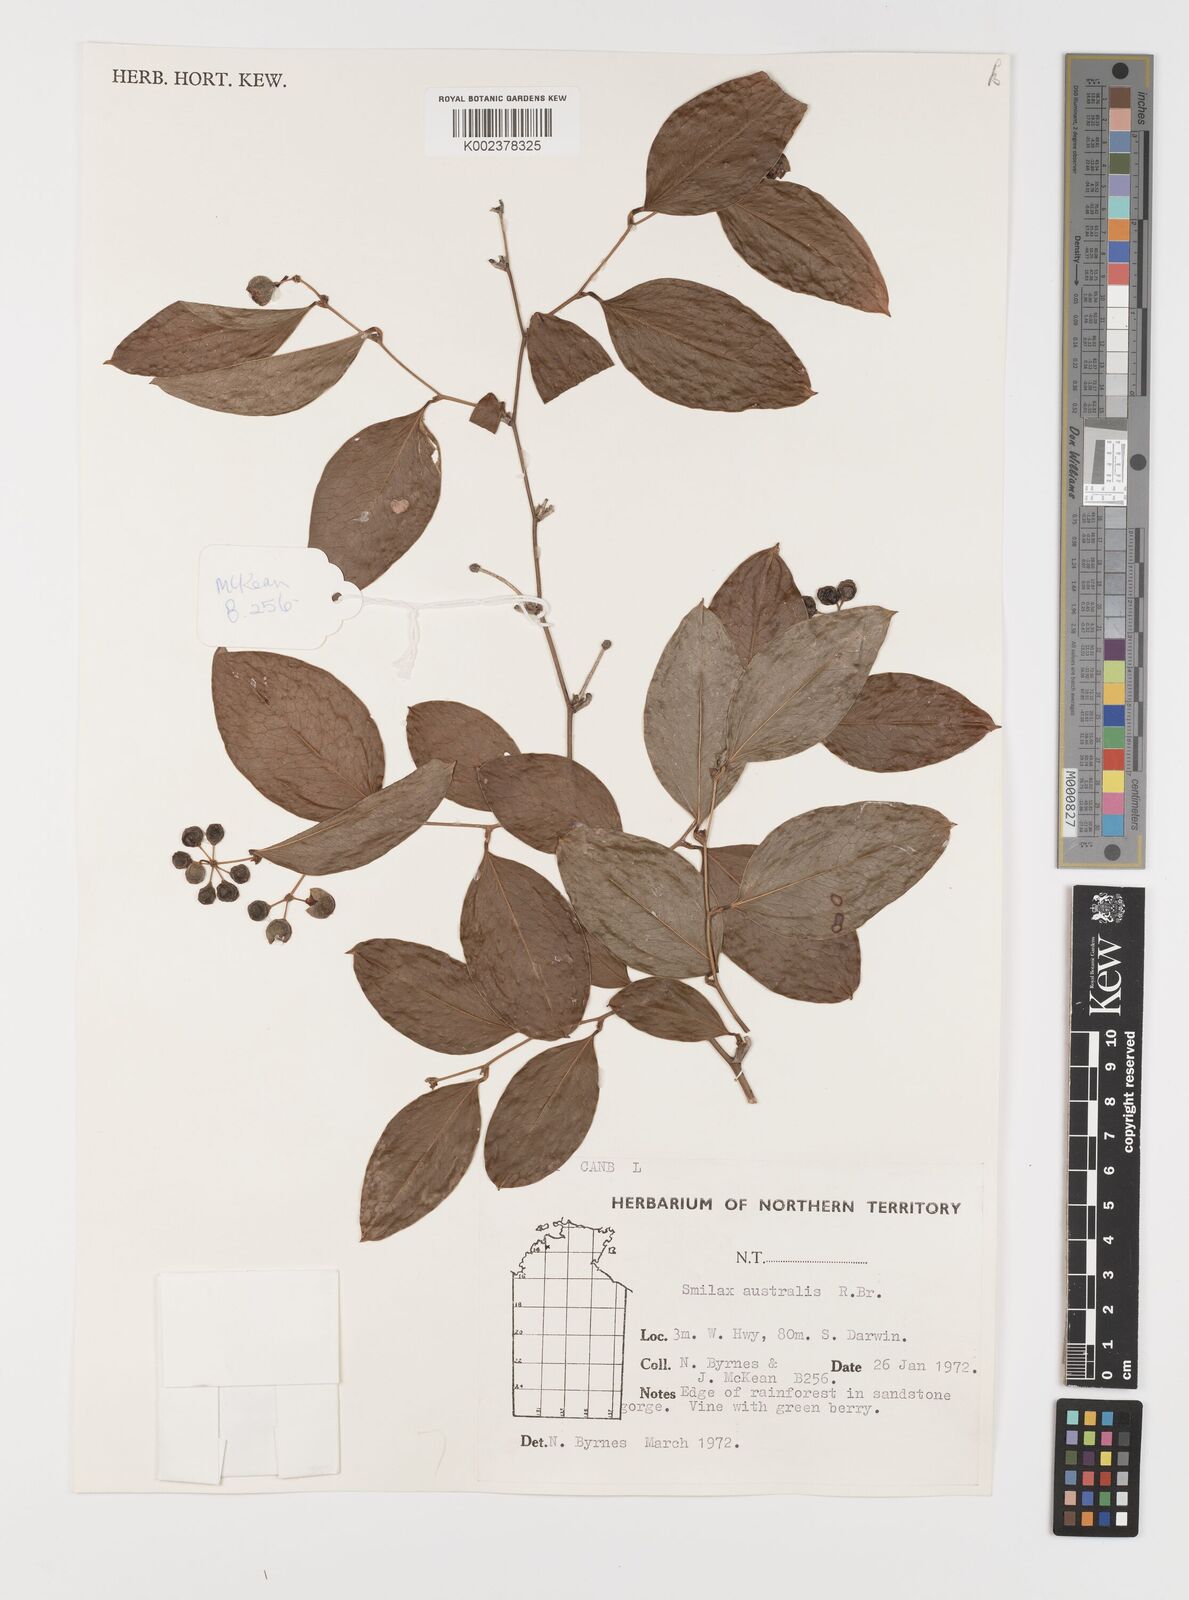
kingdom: Plantae
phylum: Tracheophyta
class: Liliopsida
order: Liliales
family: Smilacaceae
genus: Smilax
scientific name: Smilax australis
